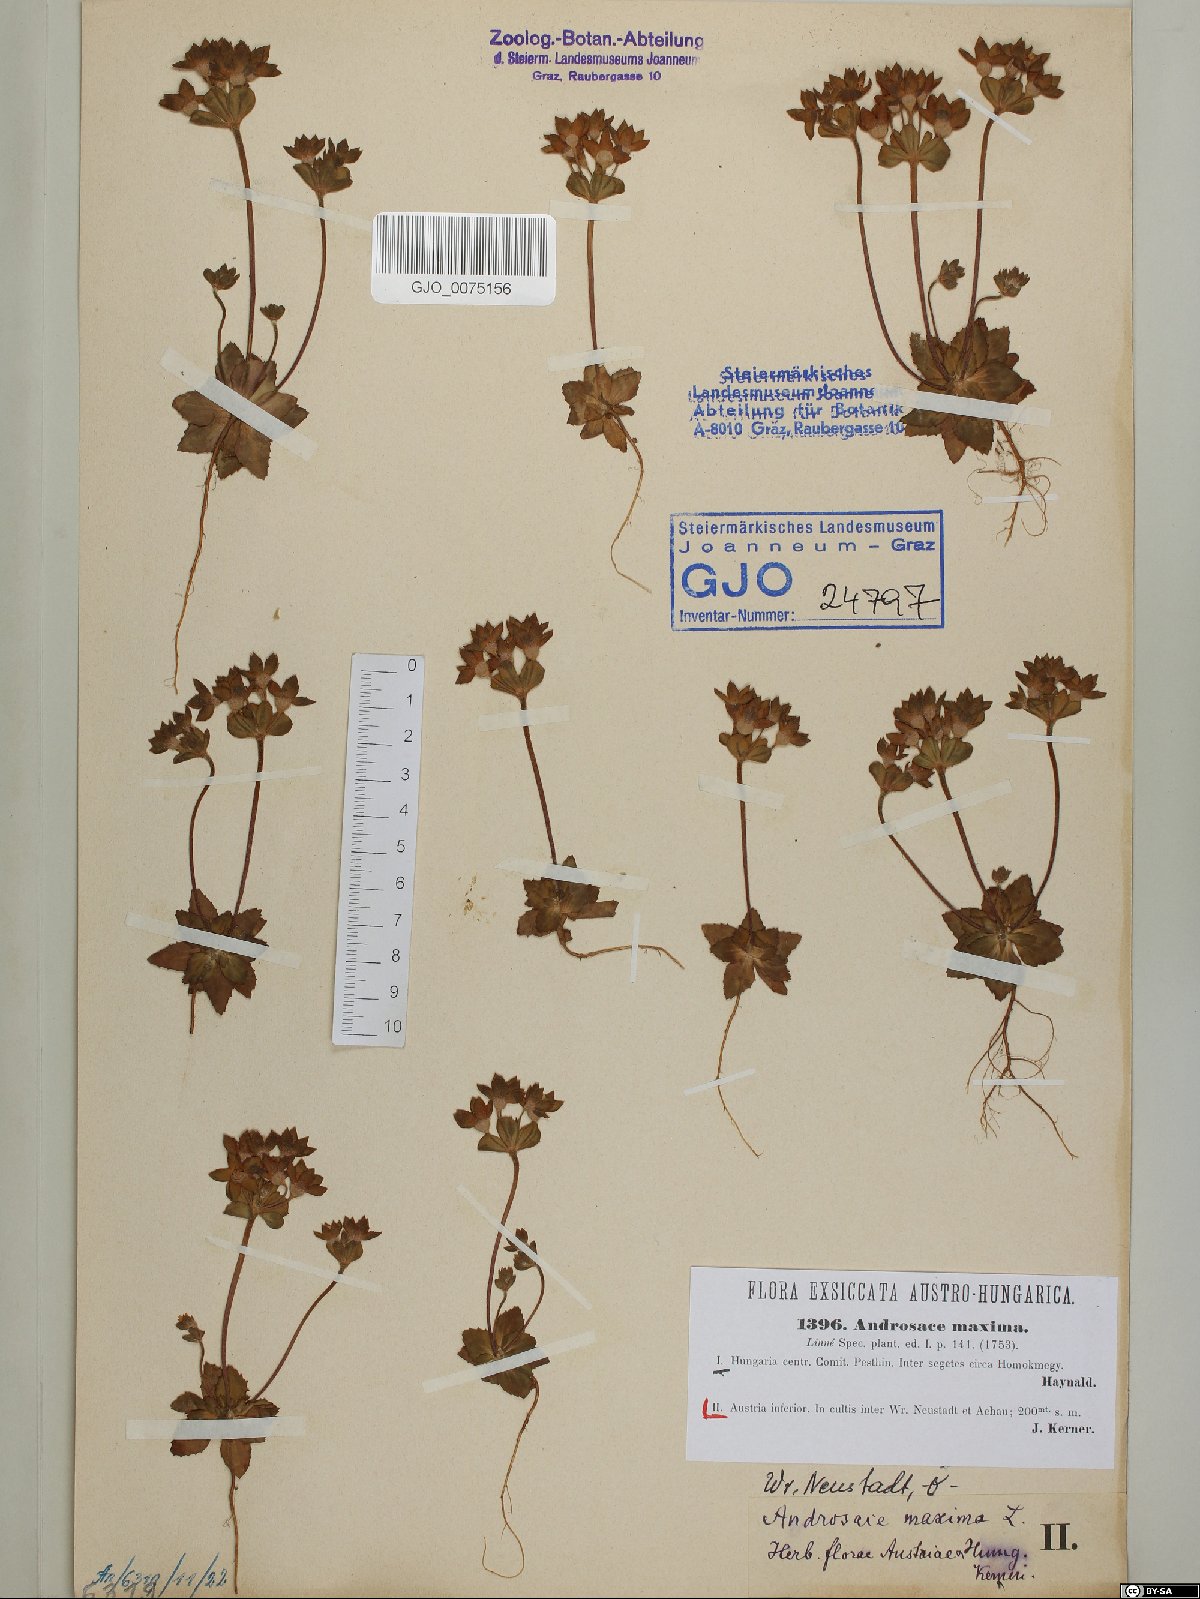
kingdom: Plantae
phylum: Tracheophyta
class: Magnoliopsida
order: Ericales
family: Primulaceae
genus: Androsace
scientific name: Androsace maxima
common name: Annual androsace
